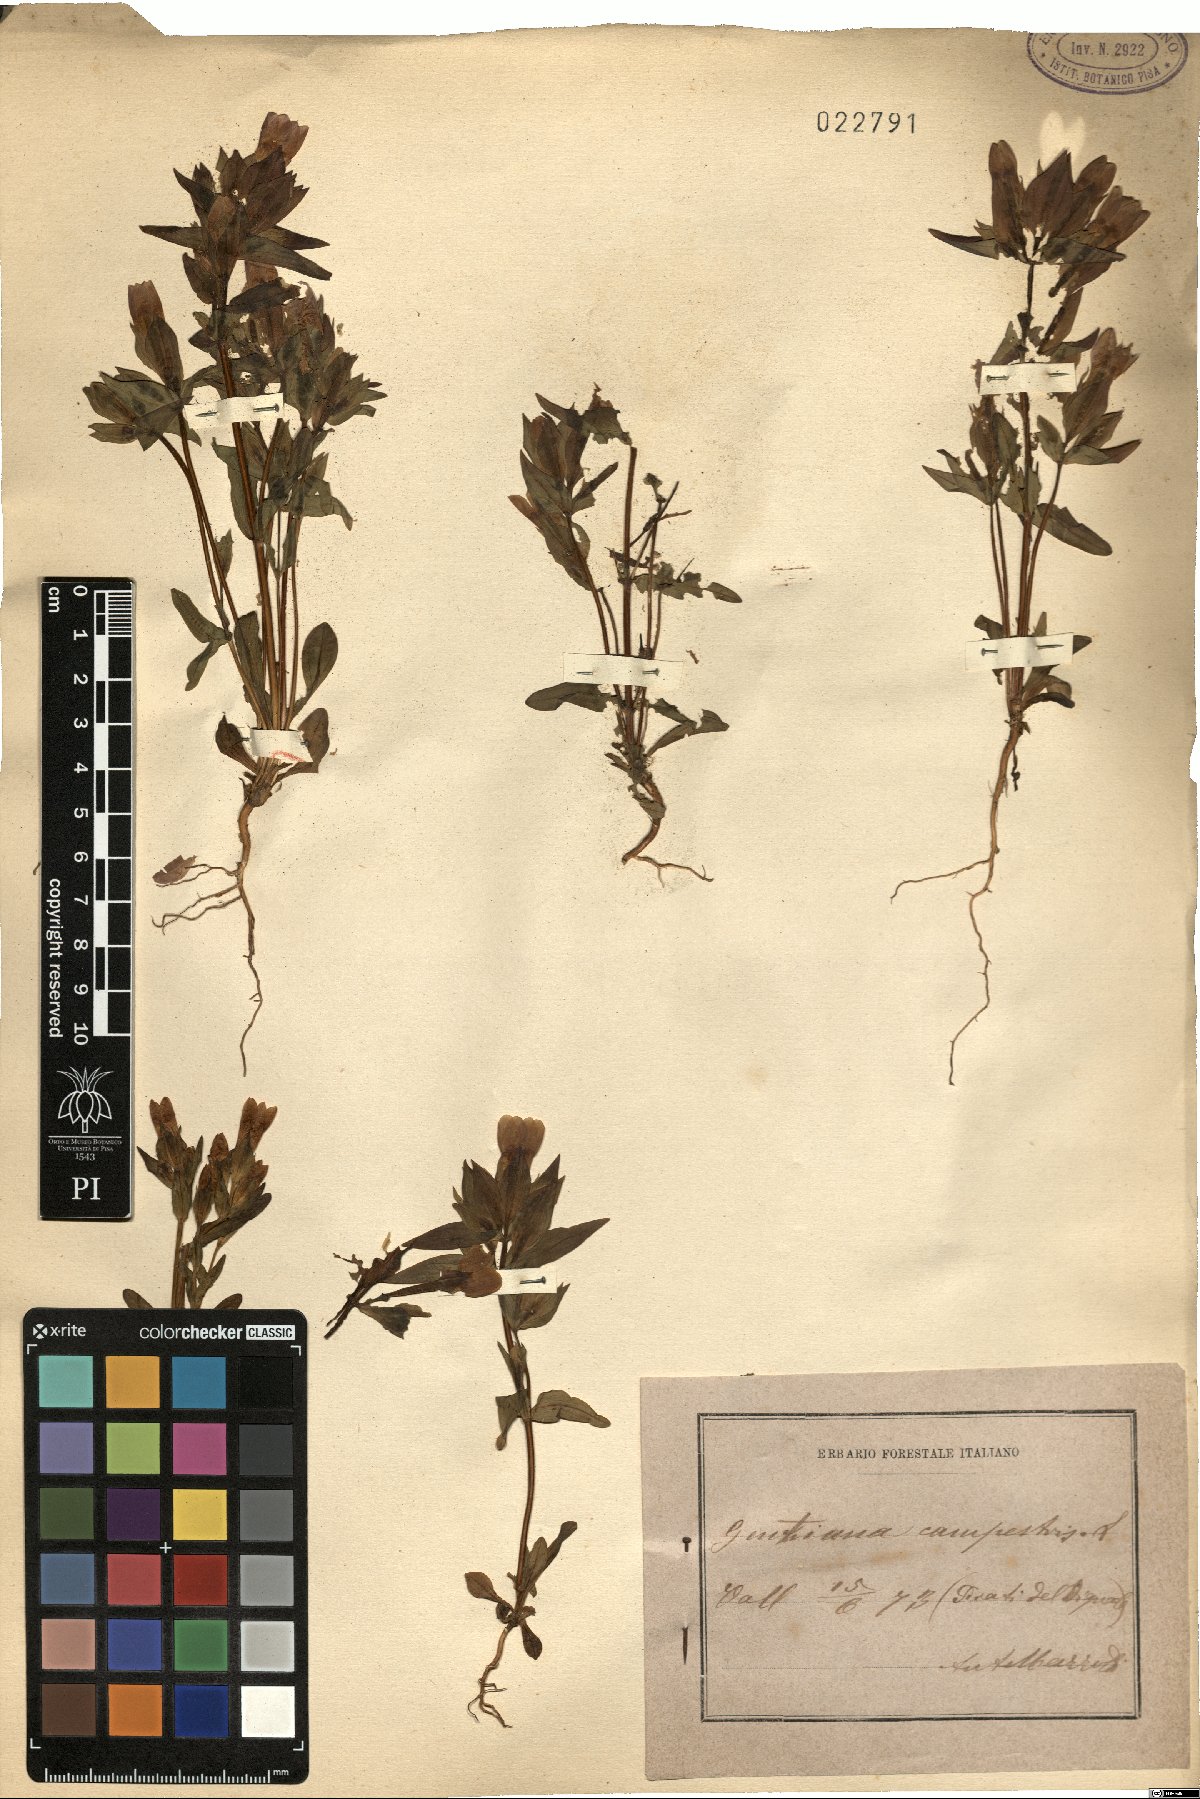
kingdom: Plantae
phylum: Tracheophyta
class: Magnoliopsida
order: Gentianales
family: Gentianaceae
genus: Gentianella
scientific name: Gentianella campestris
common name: Field gentian
